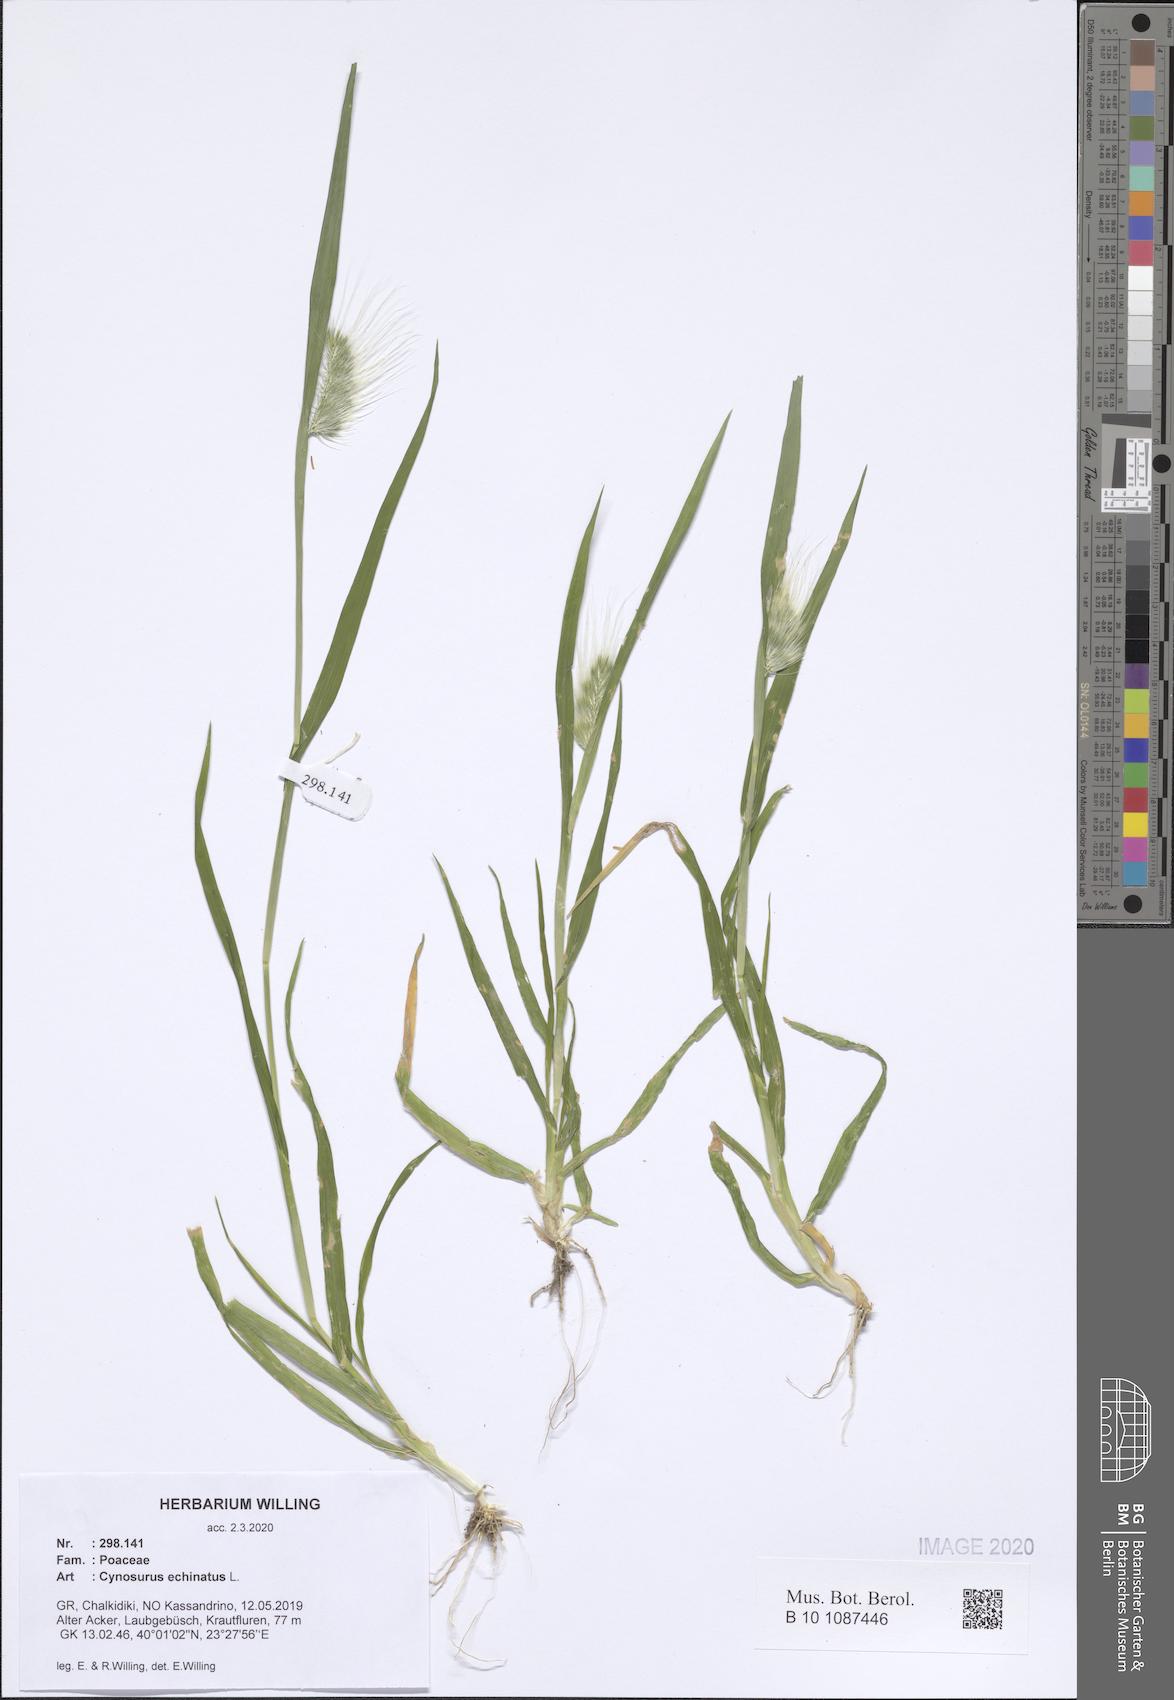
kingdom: Plantae
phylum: Tracheophyta
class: Liliopsida
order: Poales
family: Poaceae
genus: Cynosurus
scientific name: Cynosurus echinatus
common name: Rough dog's-tail
